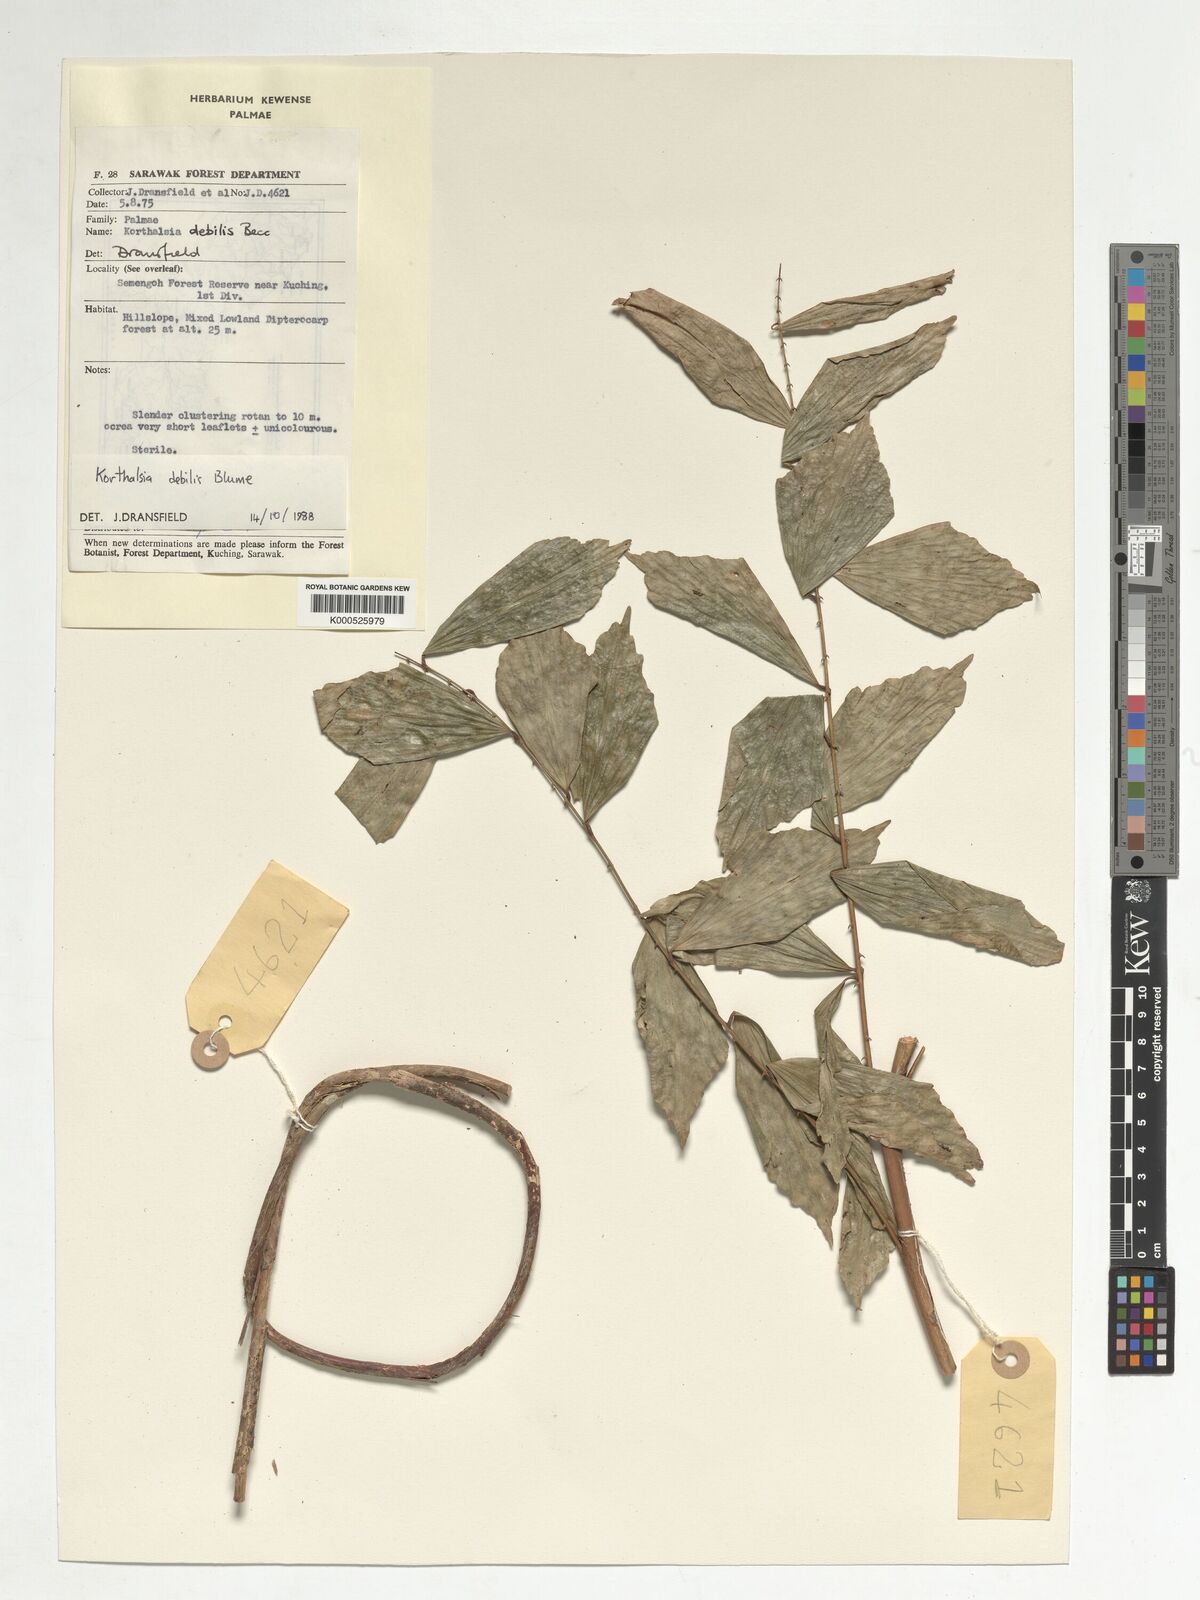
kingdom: Plantae
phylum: Tracheophyta
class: Liliopsida
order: Arecales
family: Arecaceae
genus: Korthalsia
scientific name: Korthalsia debilis
